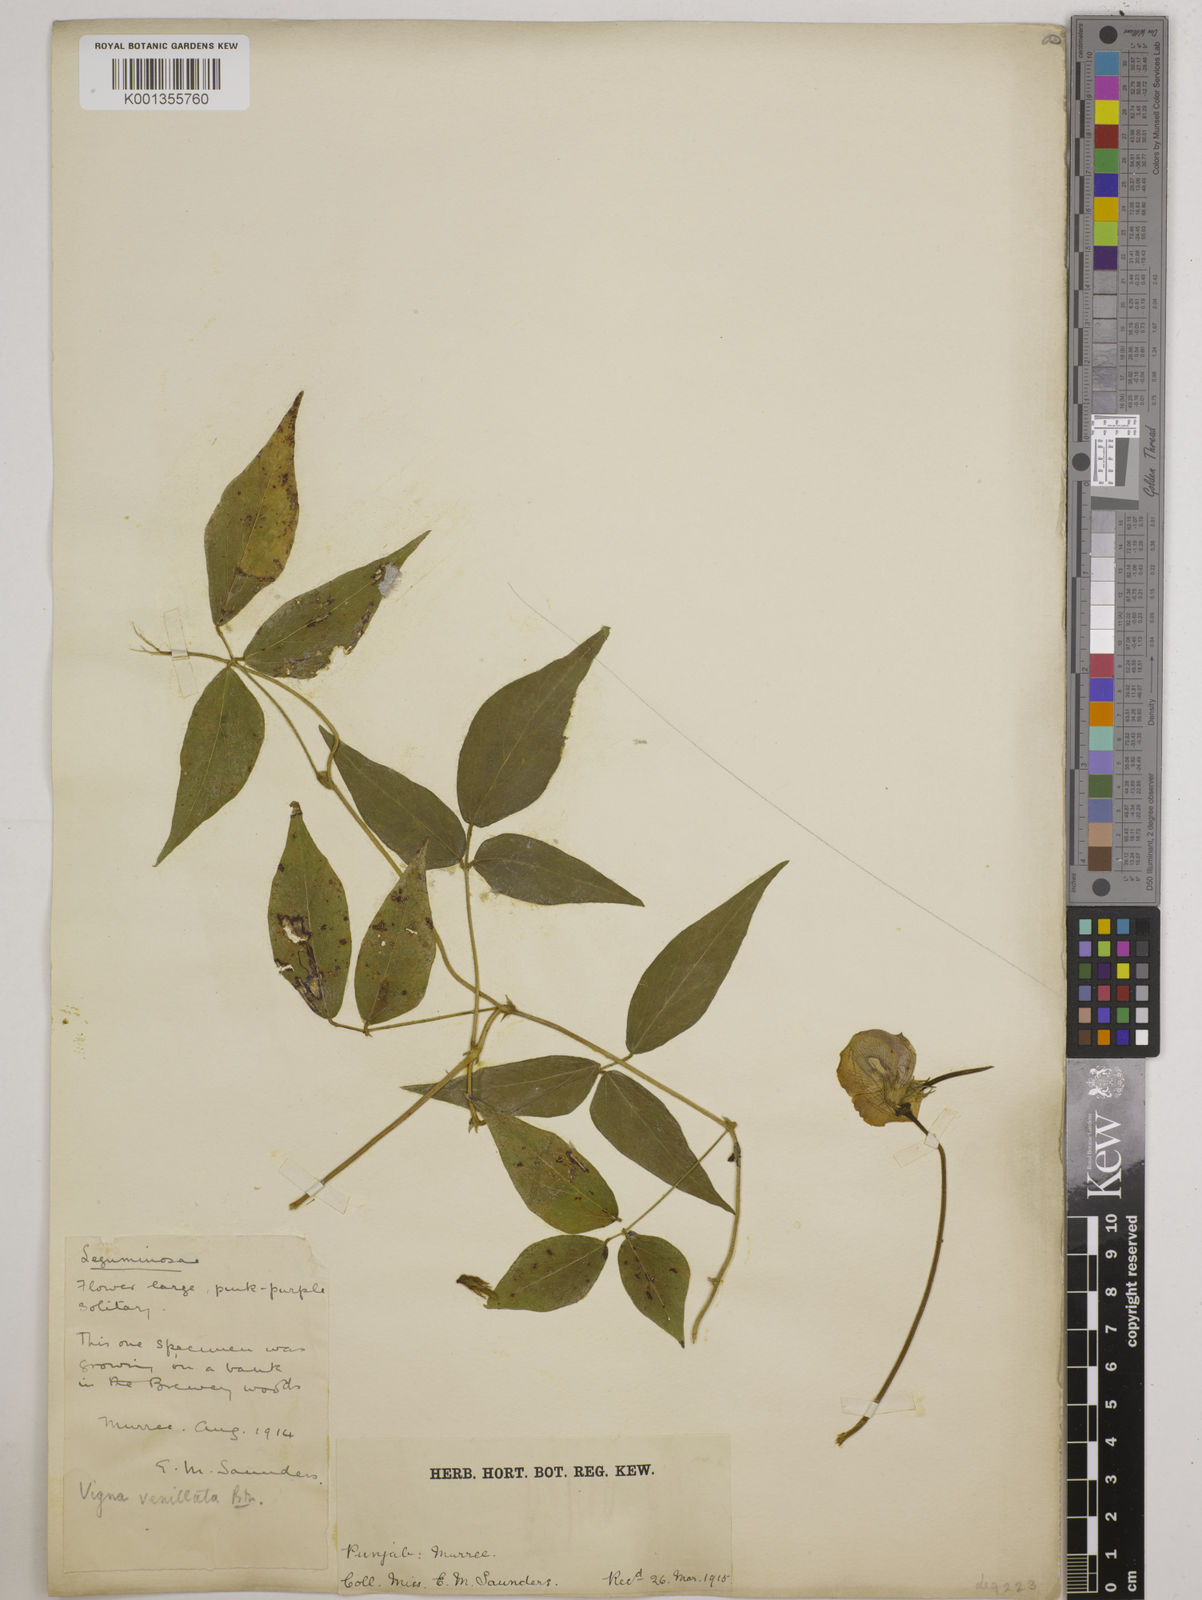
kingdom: Plantae
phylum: Tracheophyta
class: Magnoliopsida
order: Fabales
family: Fabaceae
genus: Vigna
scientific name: Vigna vexillata
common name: Zombi pea
